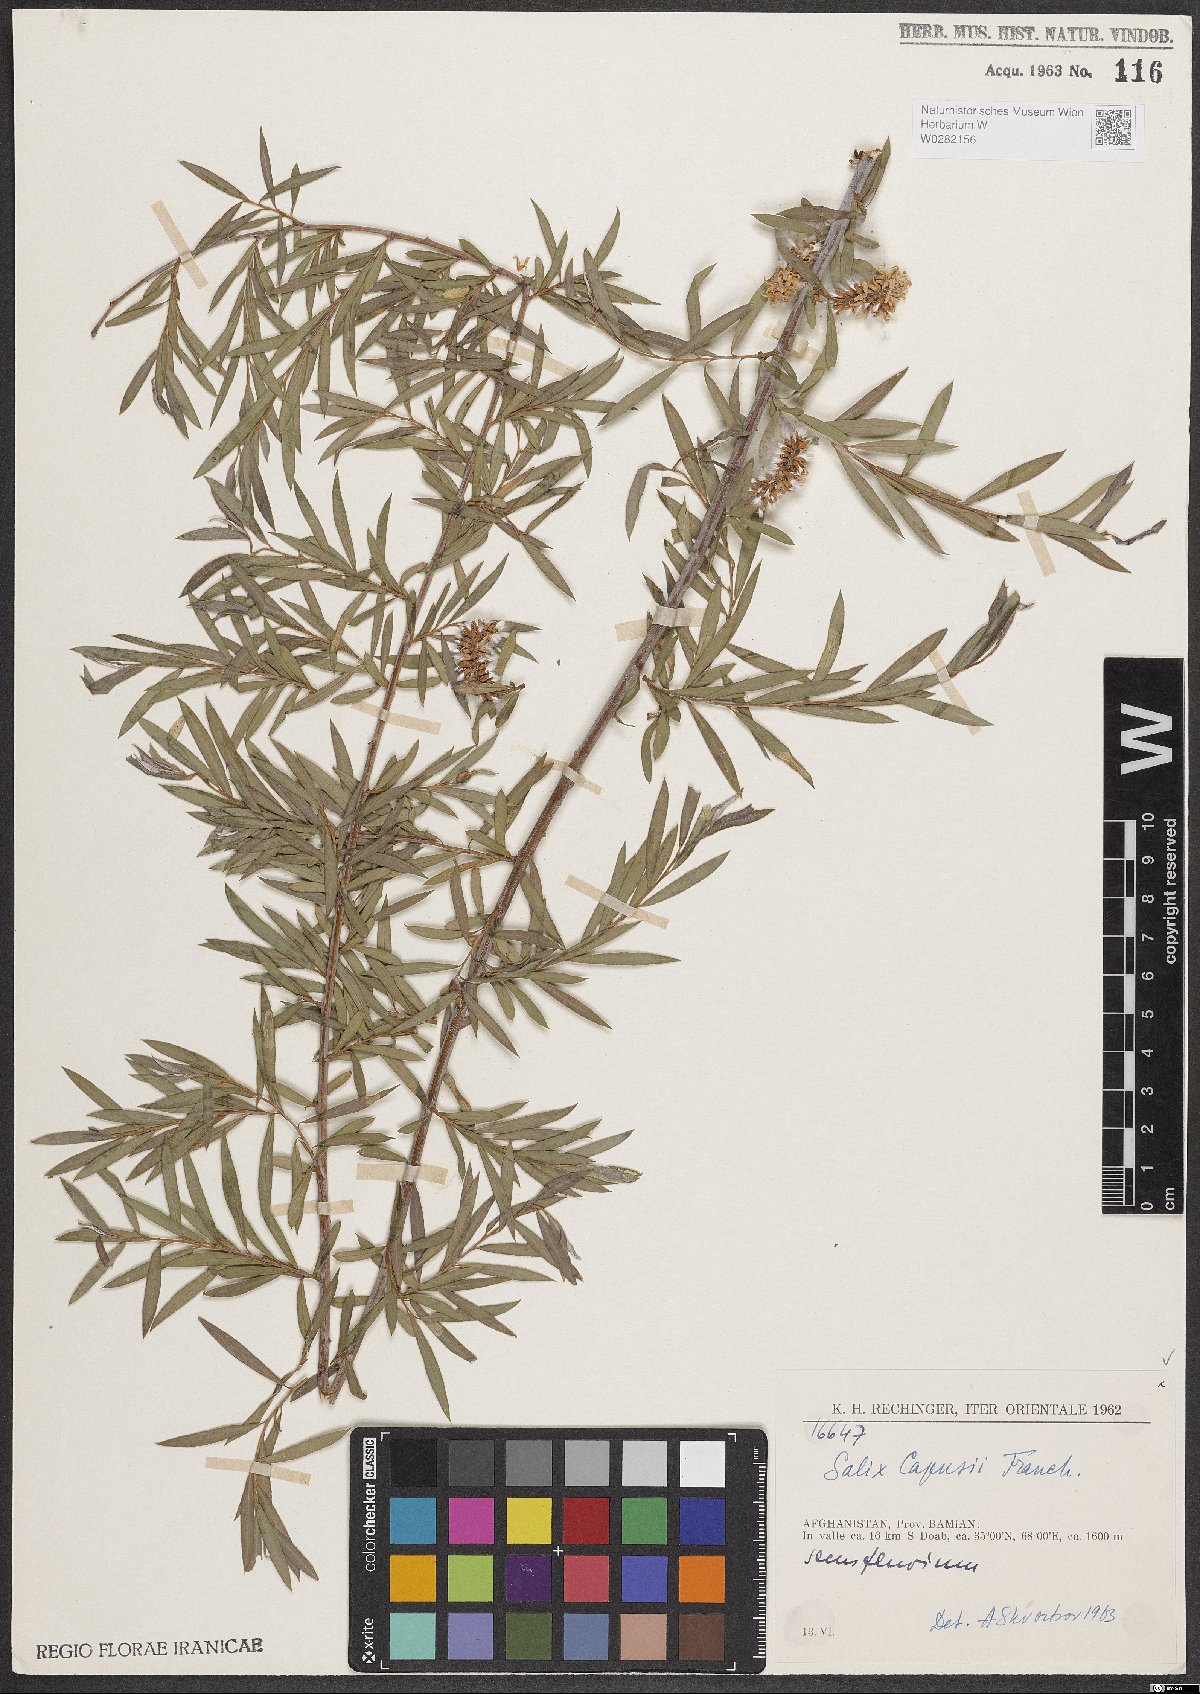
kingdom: Plantae
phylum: Tracheophyta
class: Magnoliopsida
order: Malpighiales
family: Salicaceae
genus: Salix
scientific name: Salix capusii
